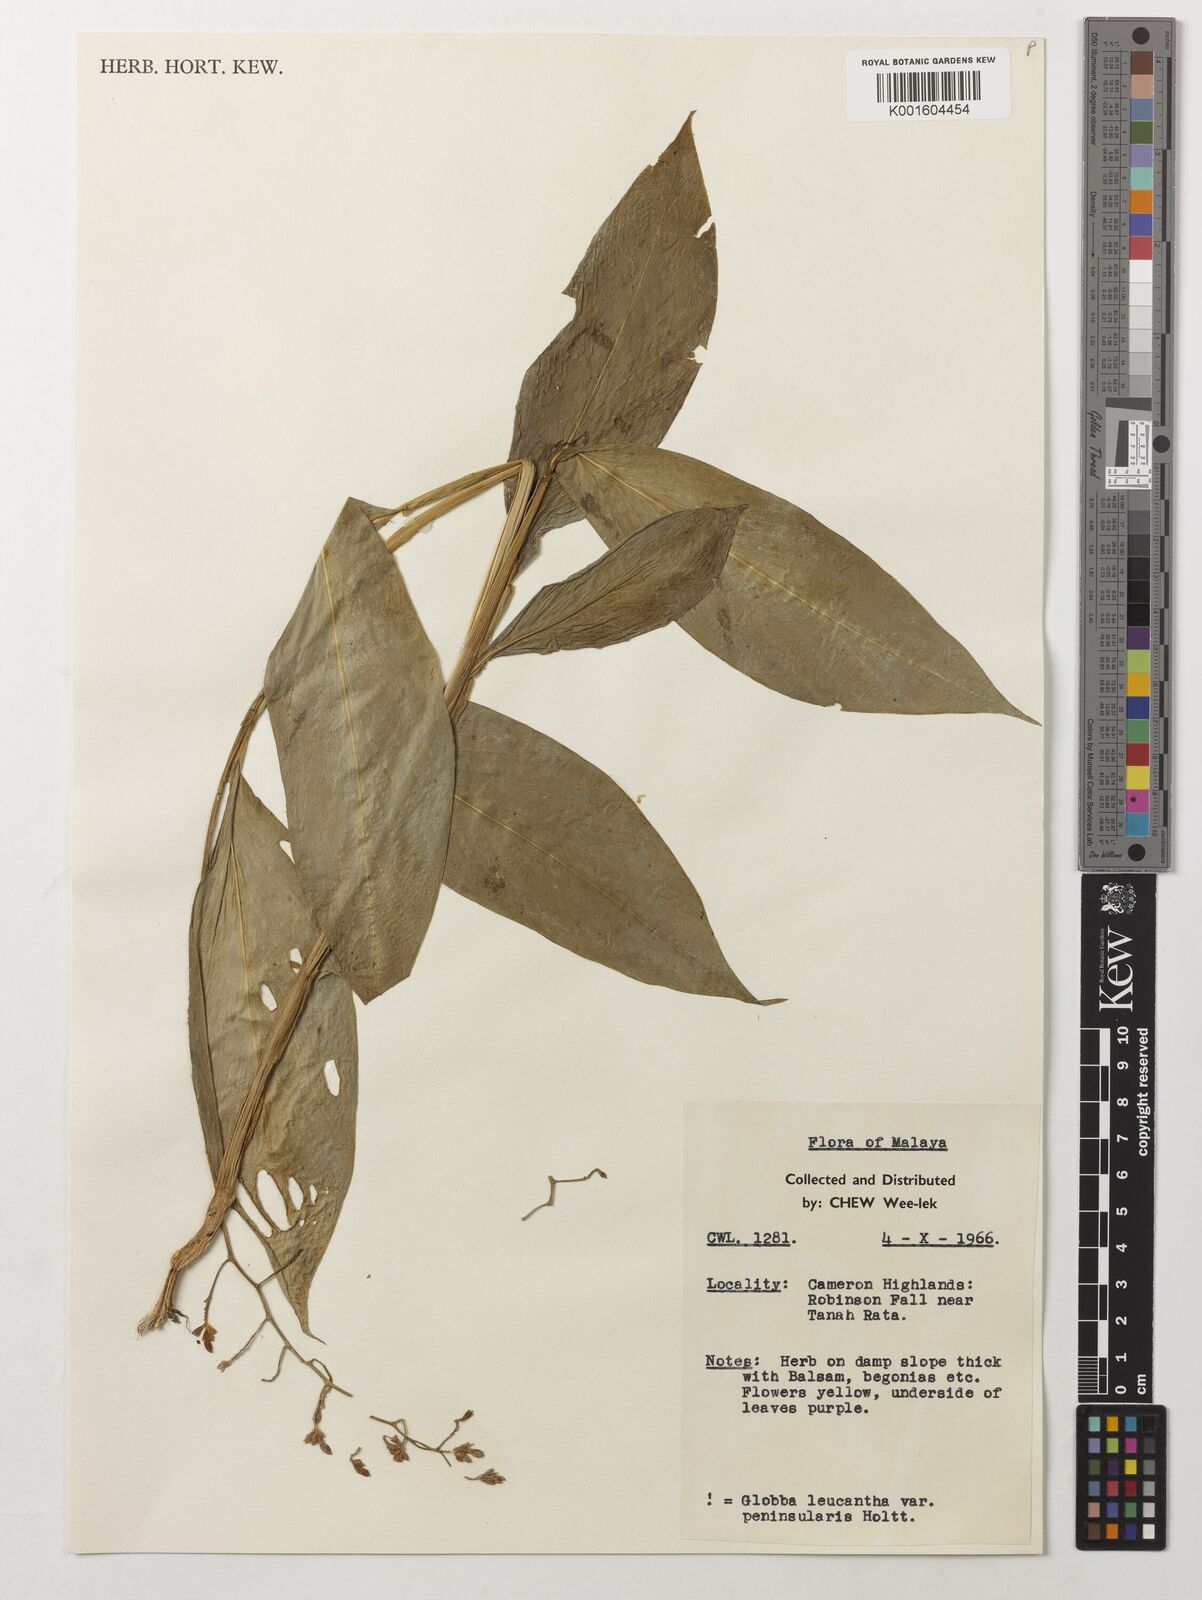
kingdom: Plantae
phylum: Tracheophyta
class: Liliopsida
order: Zingiberales
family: Zingiberaceae
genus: Globba
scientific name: Globba leucantha
